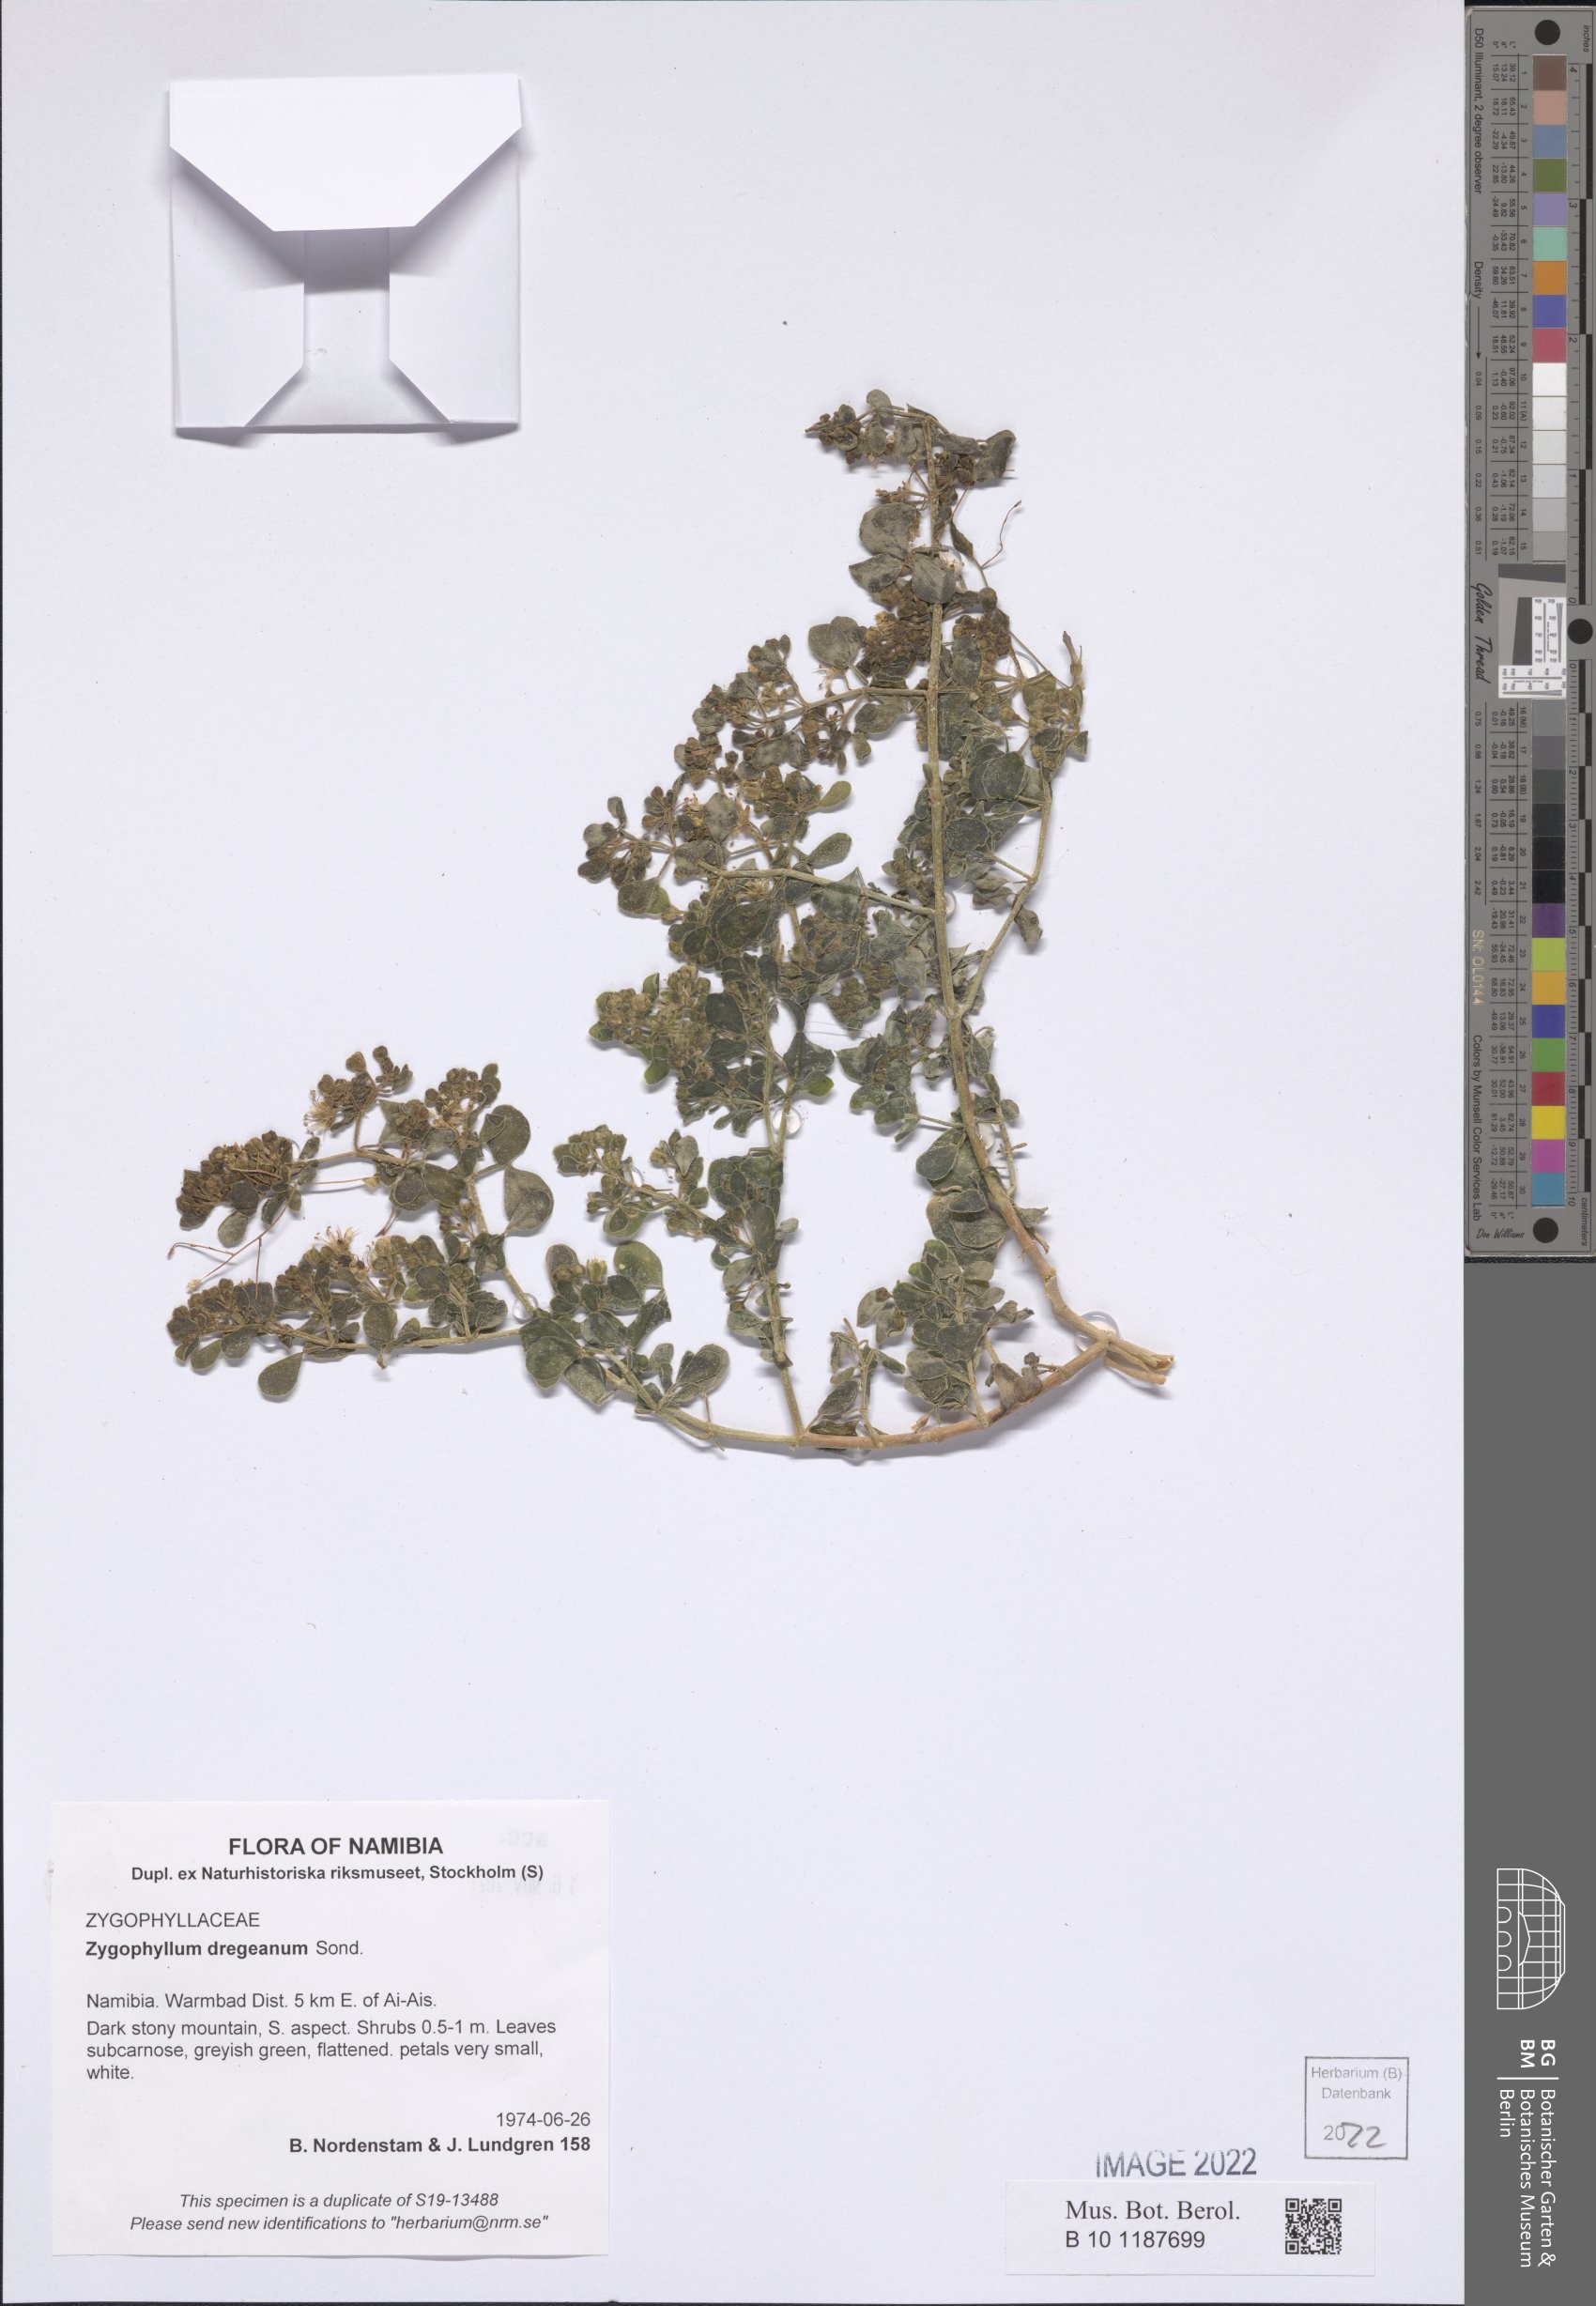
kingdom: Plantae
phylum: Tracheophyta
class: Magnoliopsida
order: Zygophyllales
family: Zygophyllaceae
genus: Zygophyllum
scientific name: Zygophyllum dregeanum
